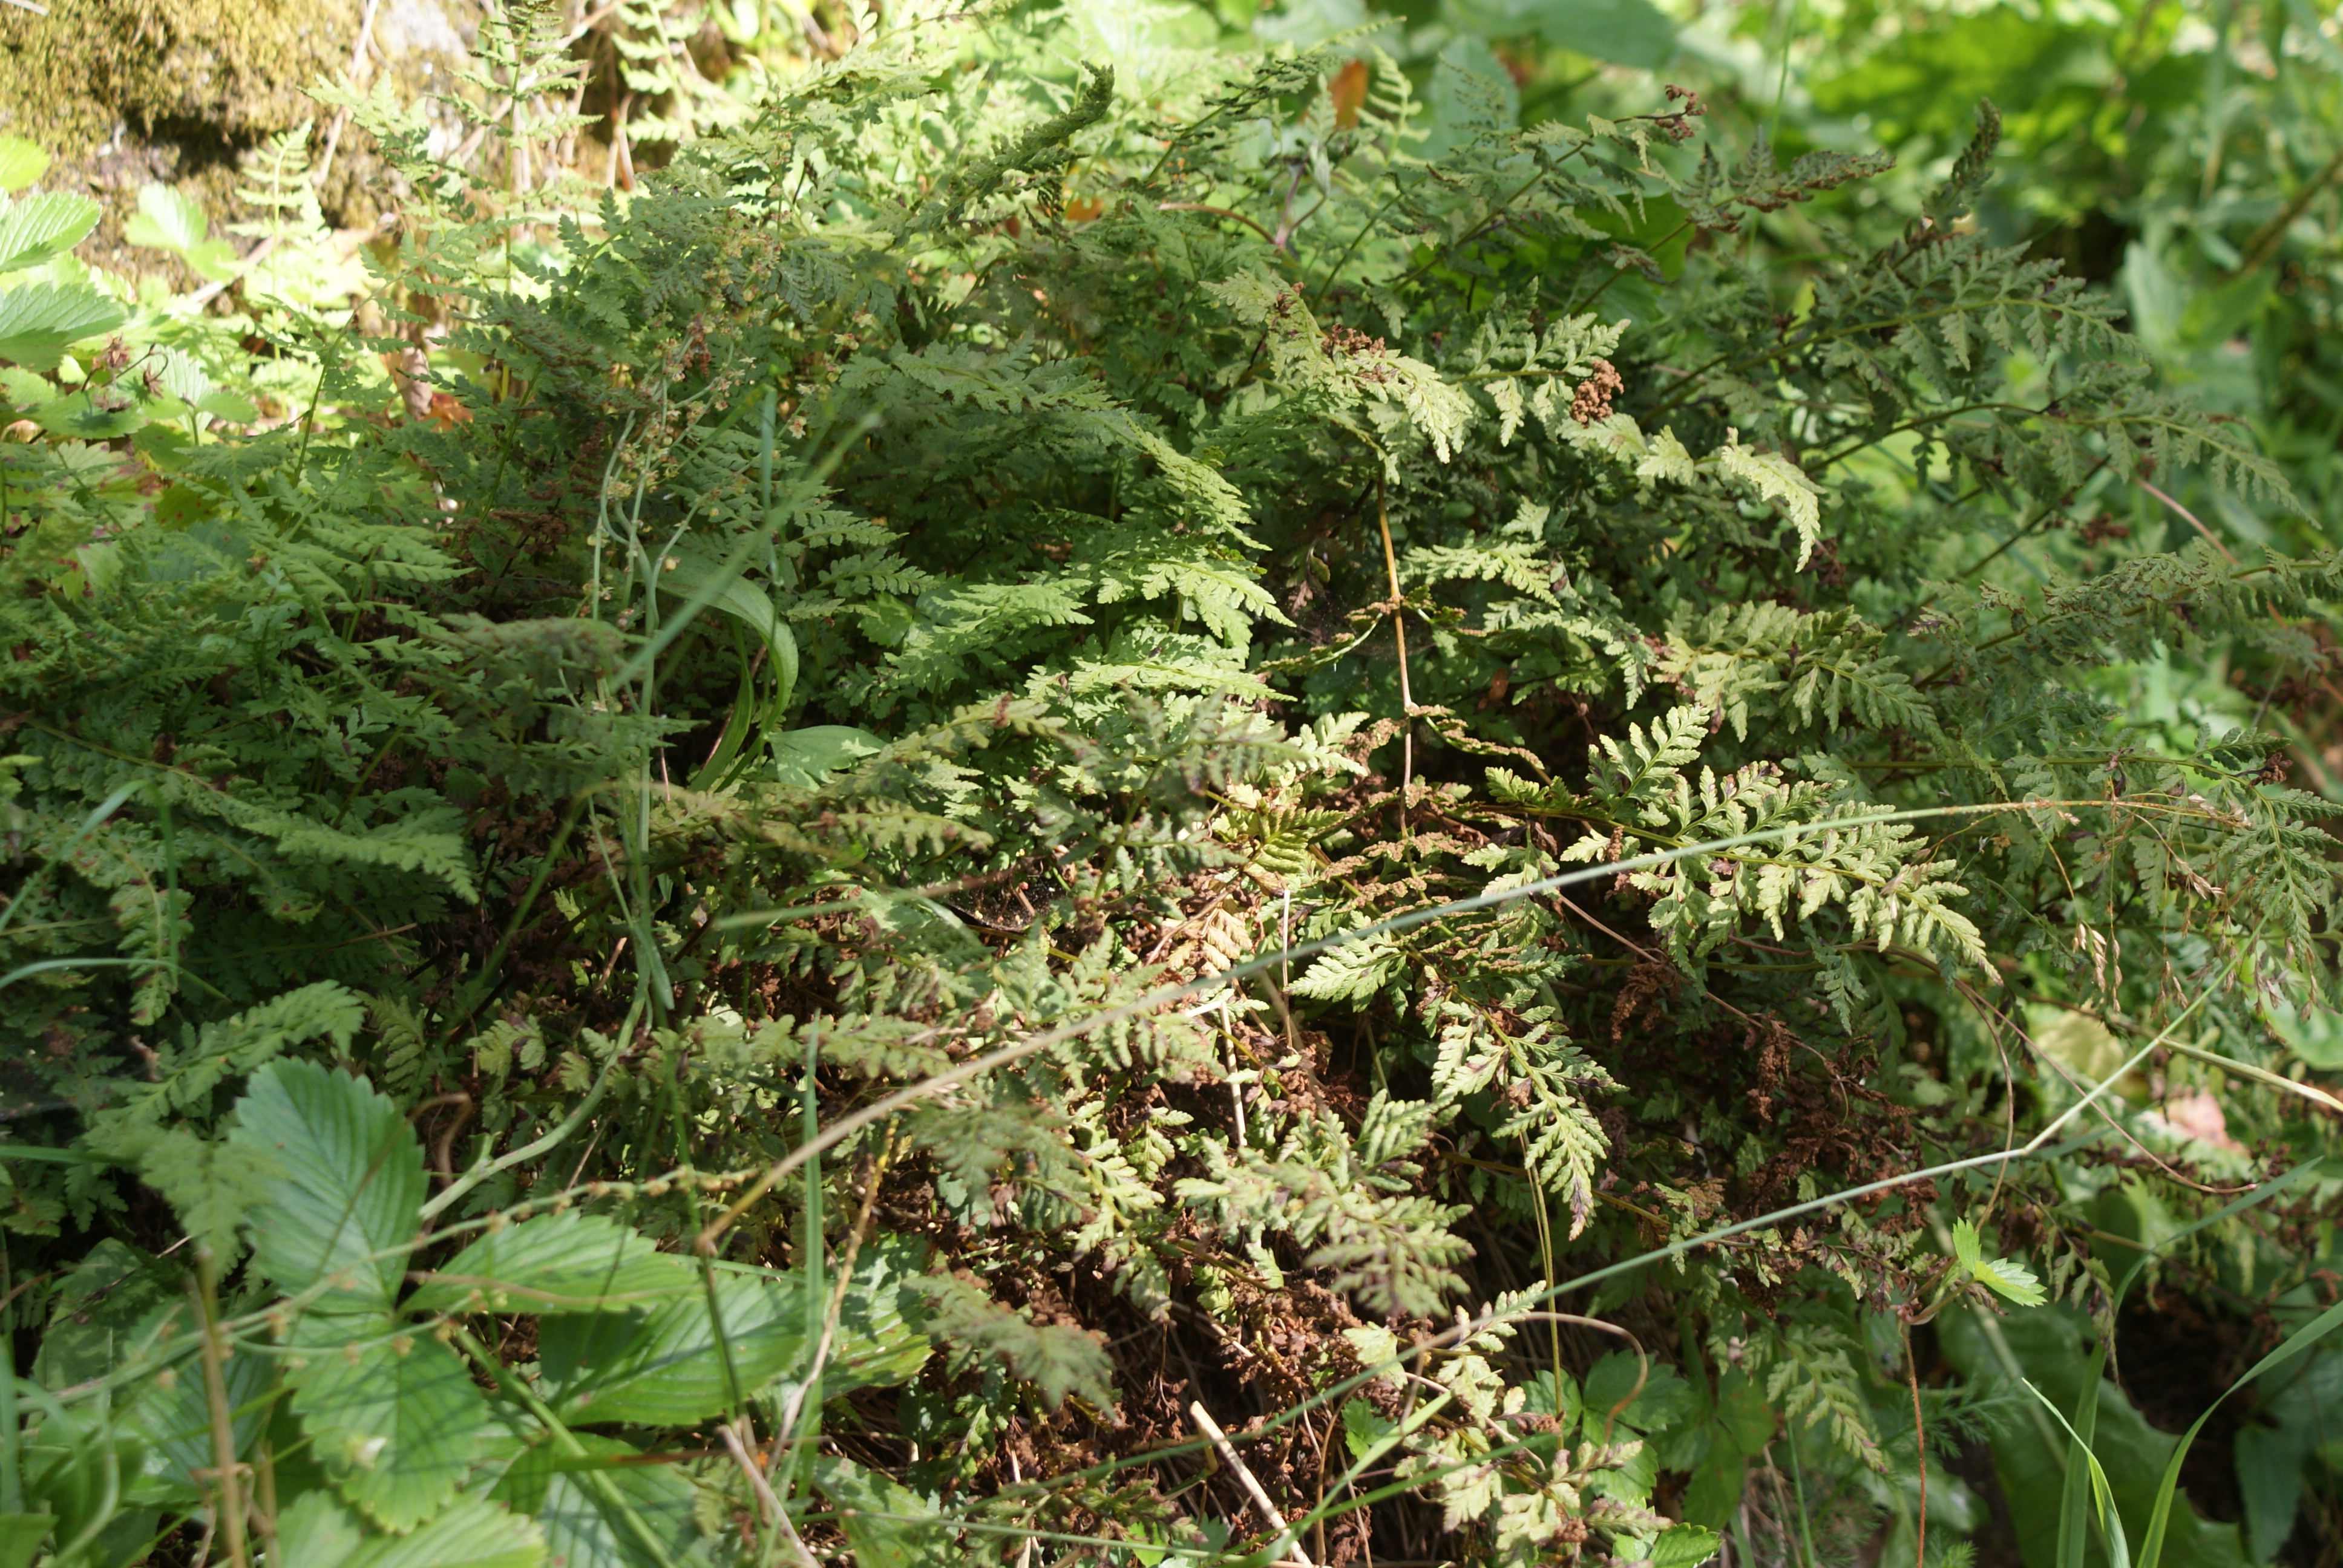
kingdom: Plantae
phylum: Tracheophyta
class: Polypodiopsida
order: Polypodiales
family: Cystopteridaceae
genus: Cystopteris
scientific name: Cystopteris fragilis
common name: Brittle bladder fern
